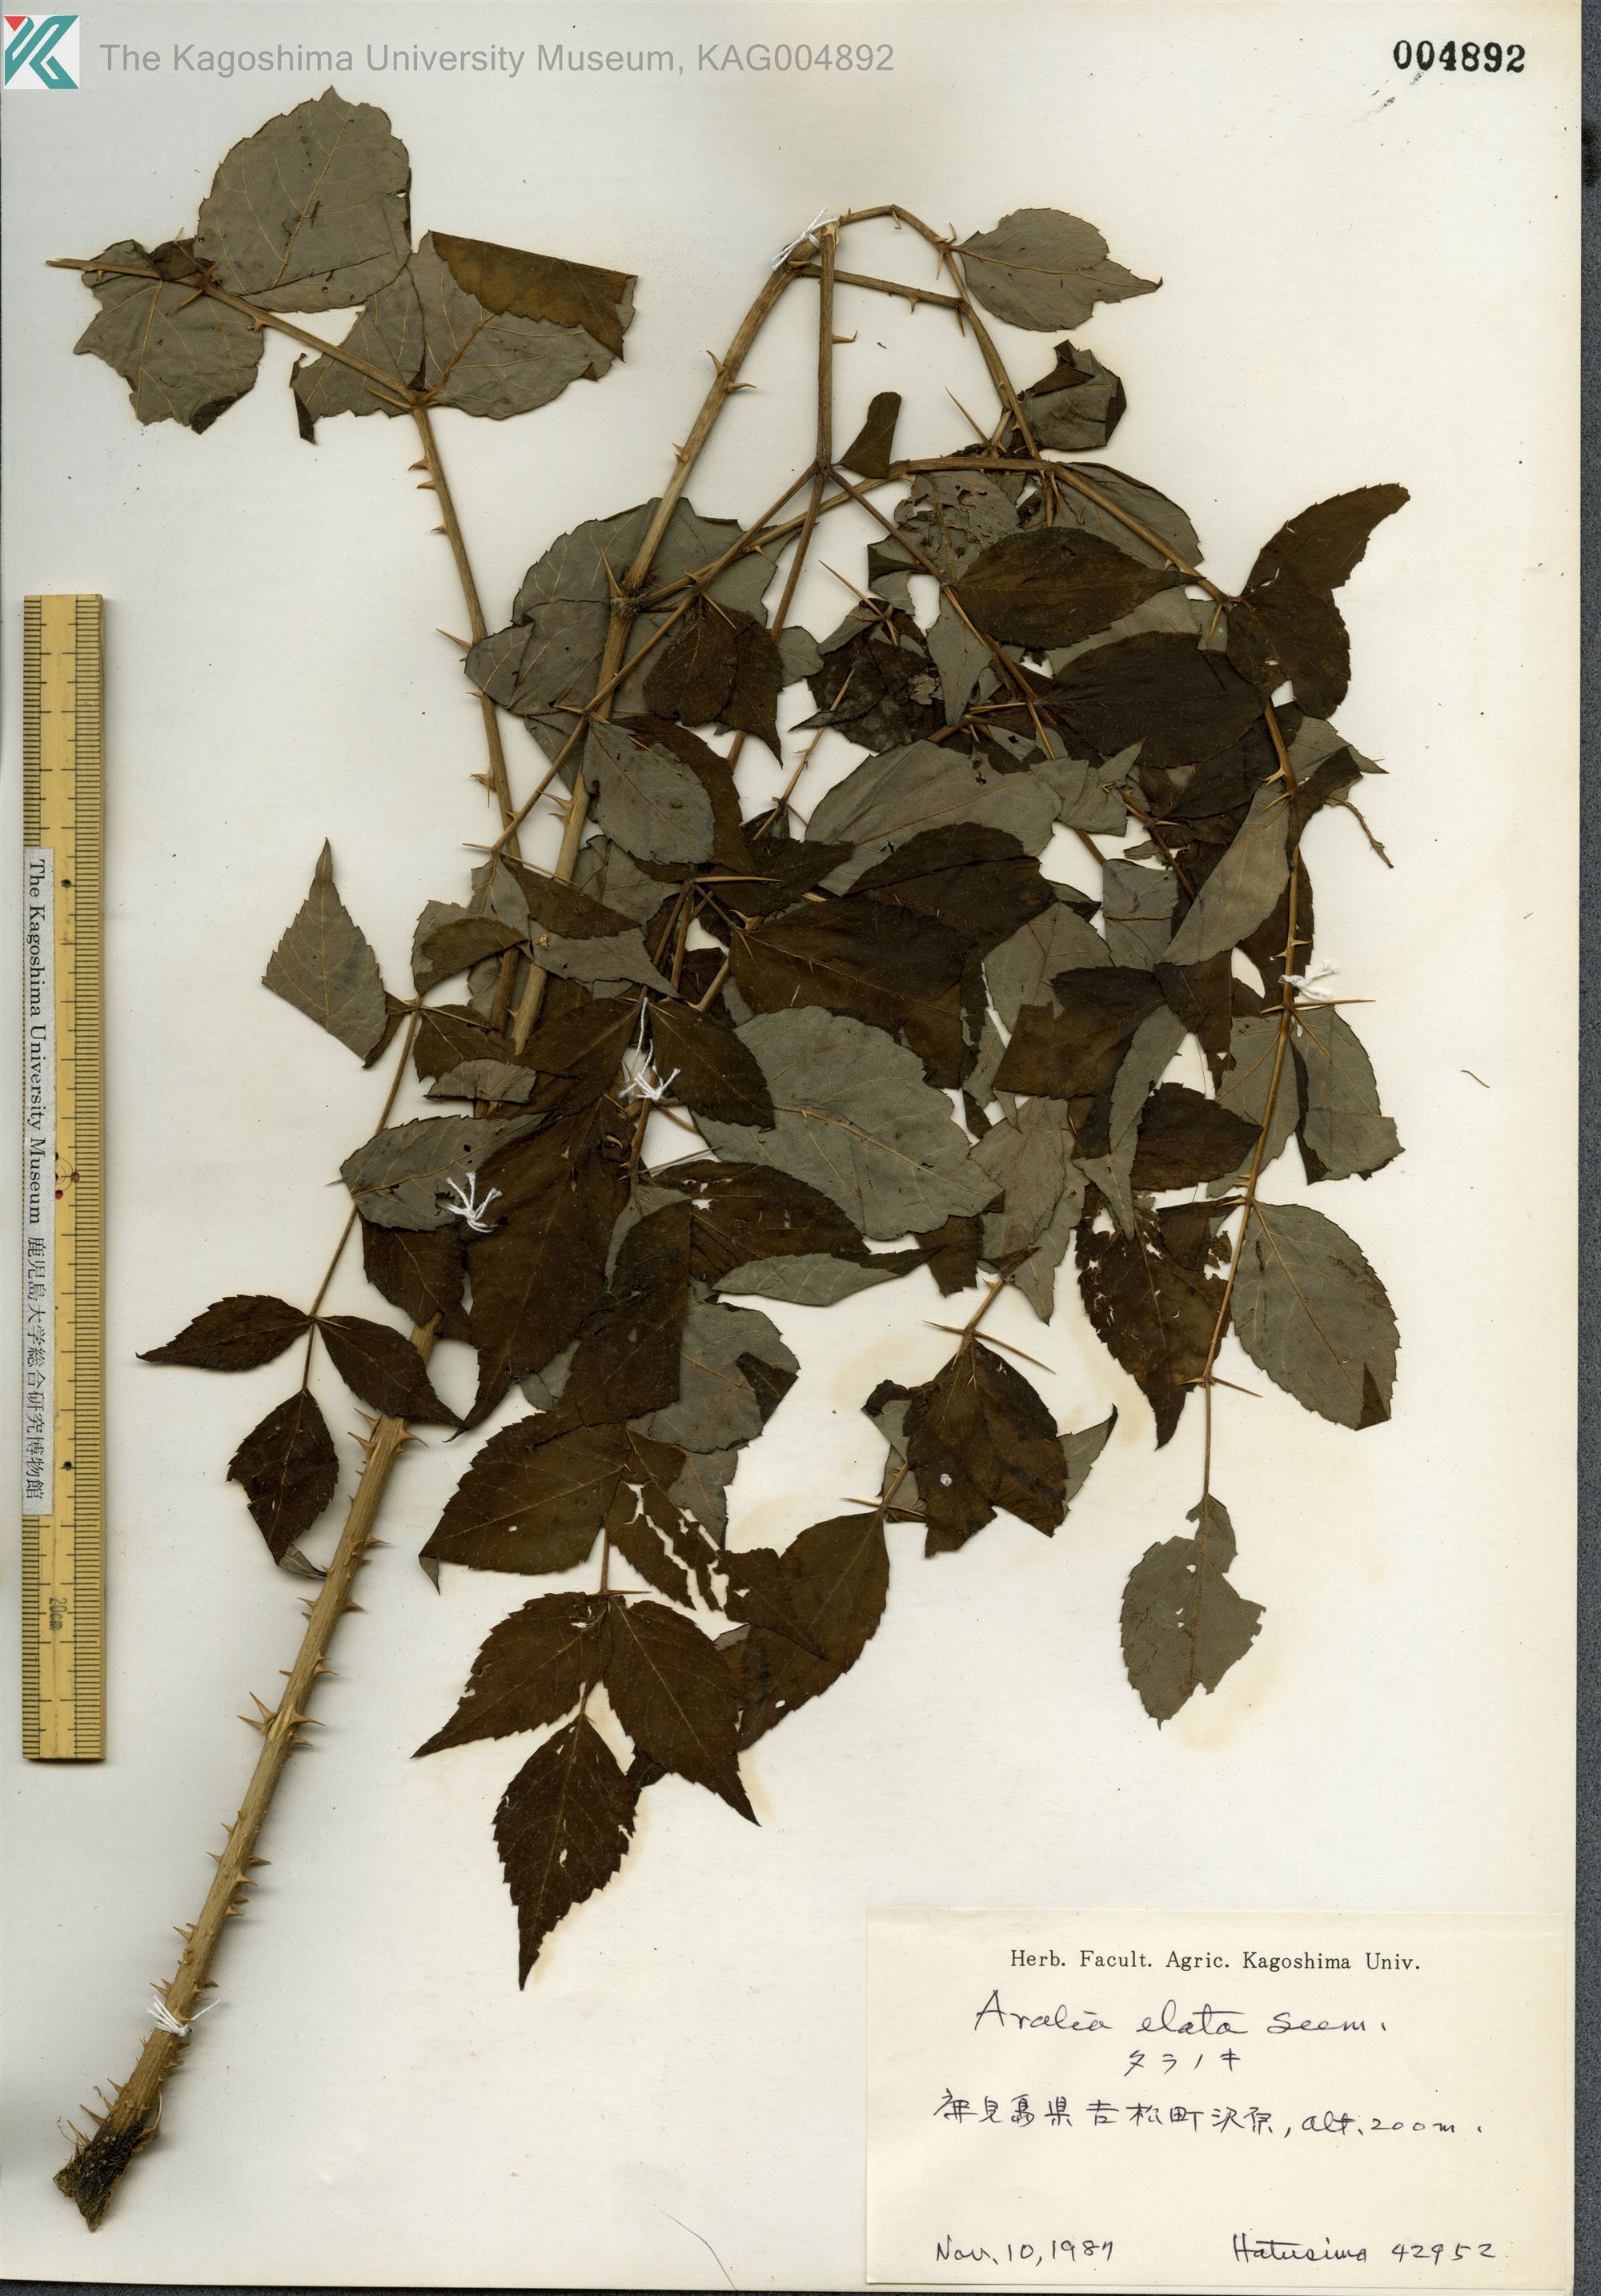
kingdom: Plantae
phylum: Tracheophyta
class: Magnoliopsida
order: Apiales
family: Araliaceae
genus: Aralia
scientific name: Aralia elata
